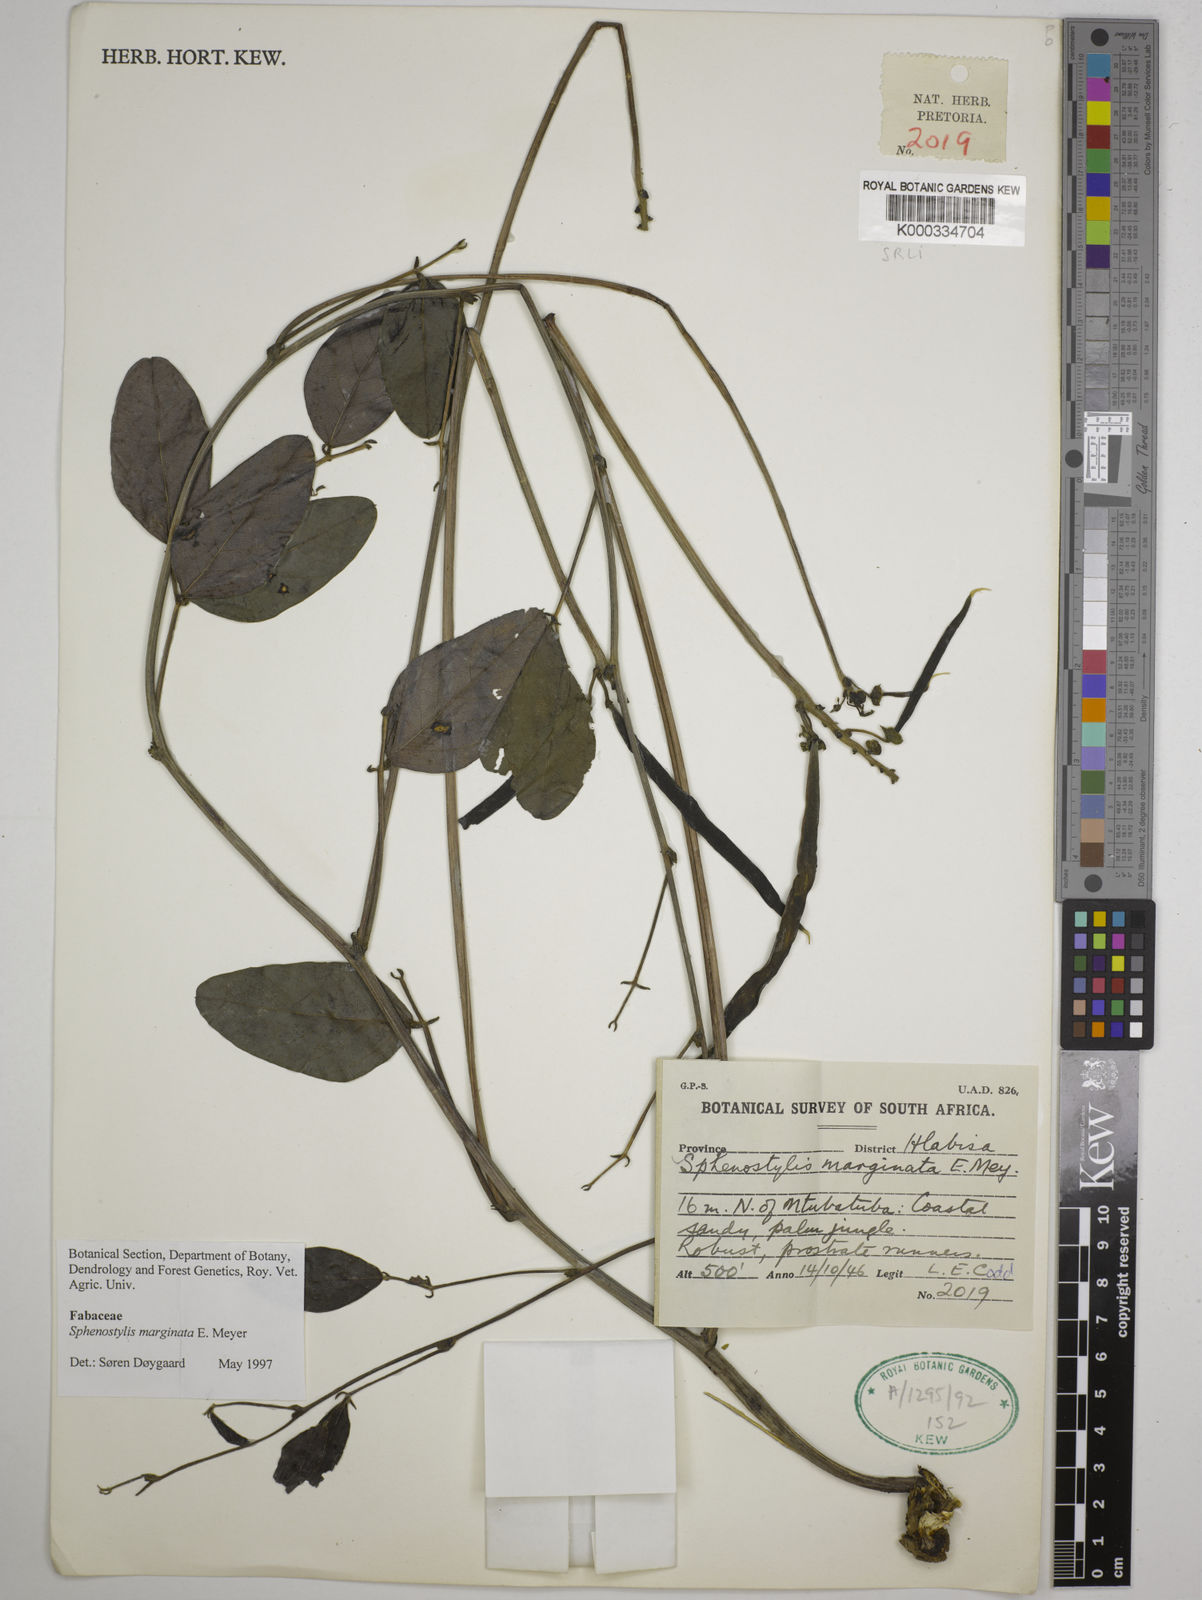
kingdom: Plantae
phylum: Tracheophyta
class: Magnoliopsida
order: Fabales
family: Fabaceae
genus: Sphenostylis
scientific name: Sphenostylis marginata
